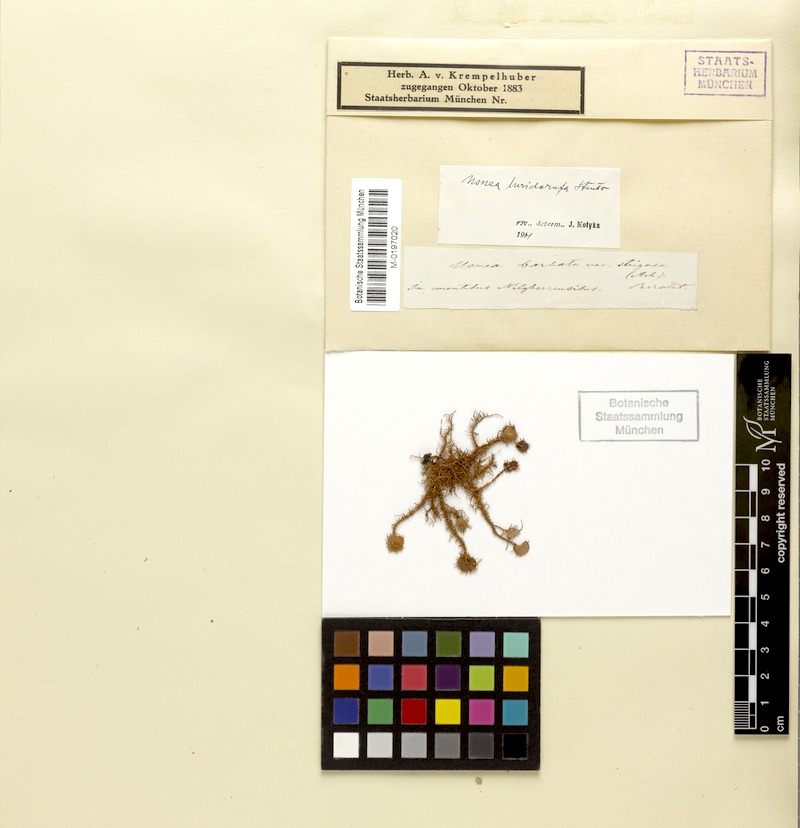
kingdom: Fungi
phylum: Ascomycota
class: Lecanoromycetes
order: Lecanorales
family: Parmeliaceae
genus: Usnea
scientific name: Usnea luridorufa
